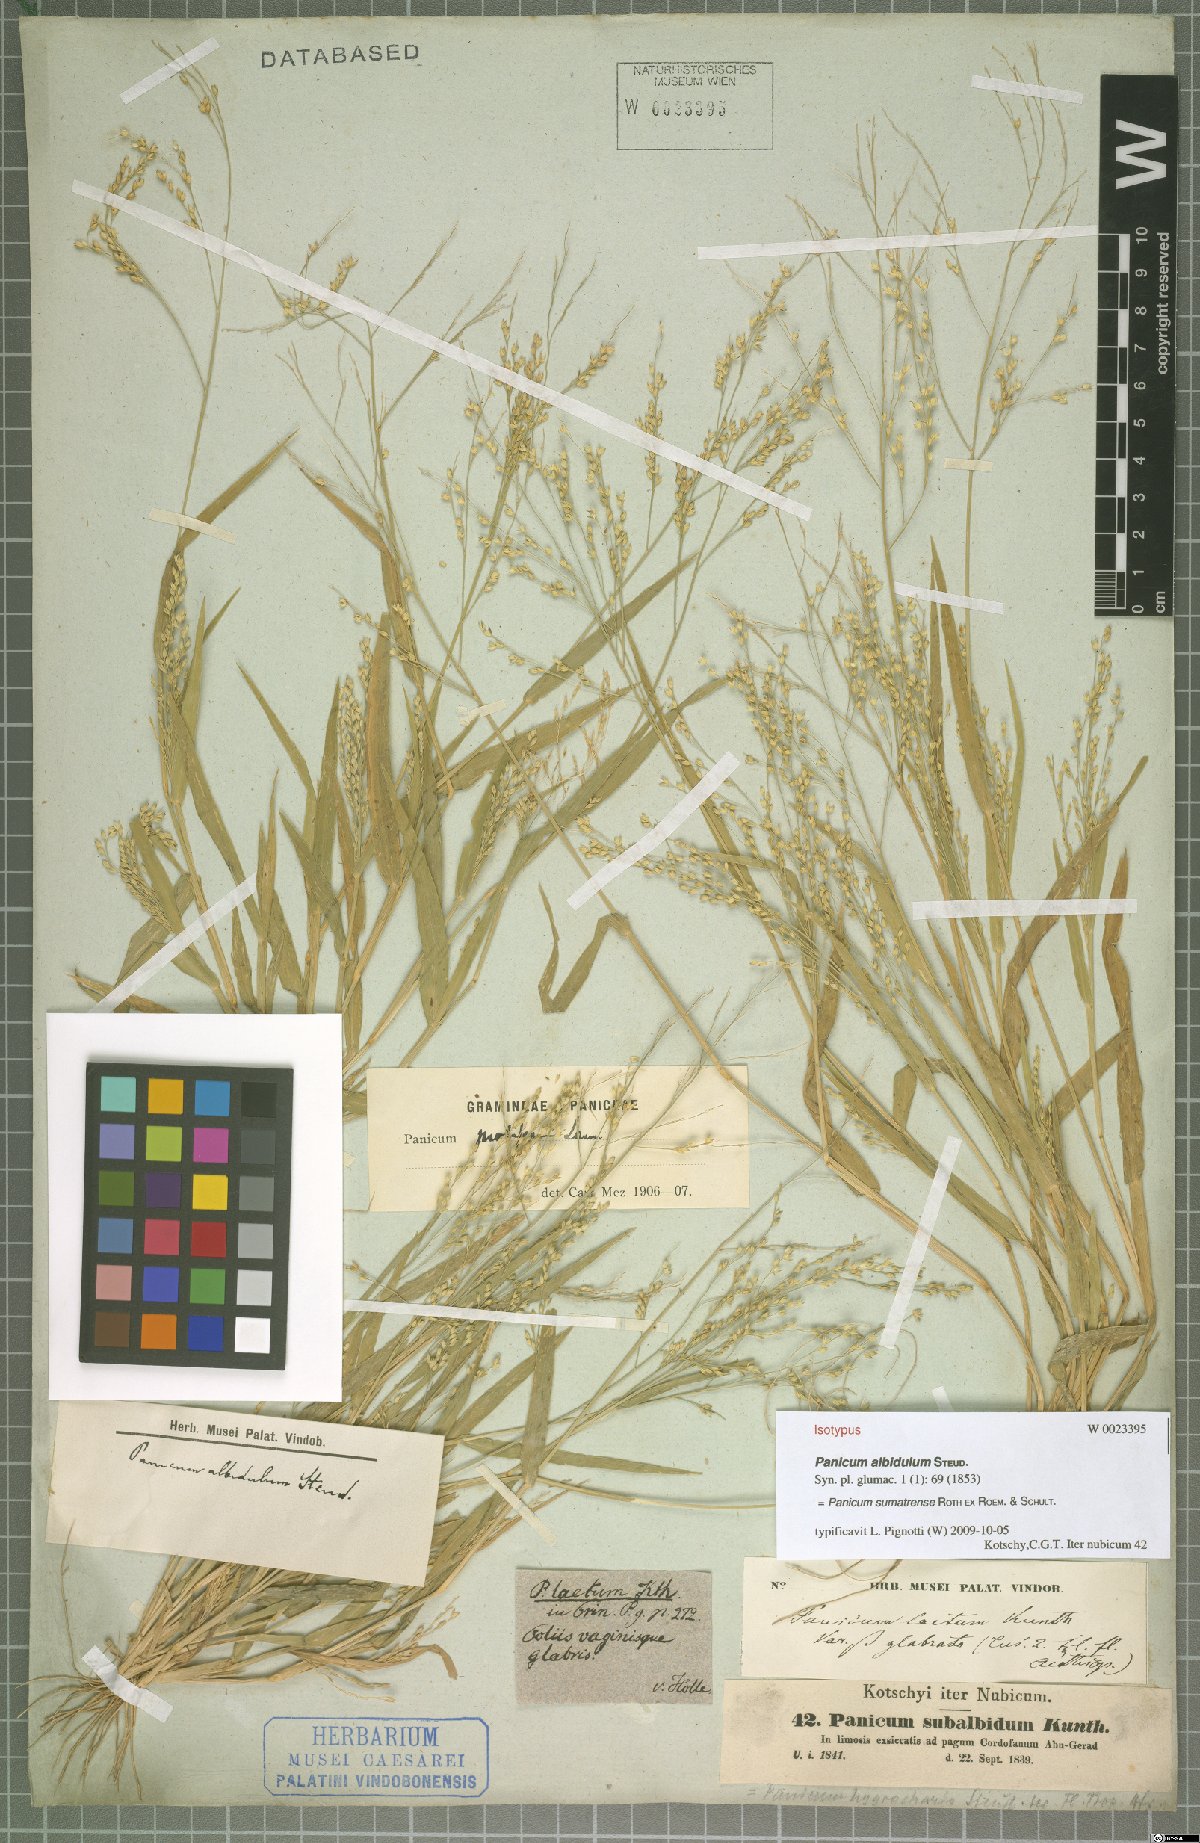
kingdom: Plantae
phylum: Tracheophyta
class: Liliopsida
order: Poales
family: Poaceae
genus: Panicum
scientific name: Panicum sumatrense
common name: Little millet
